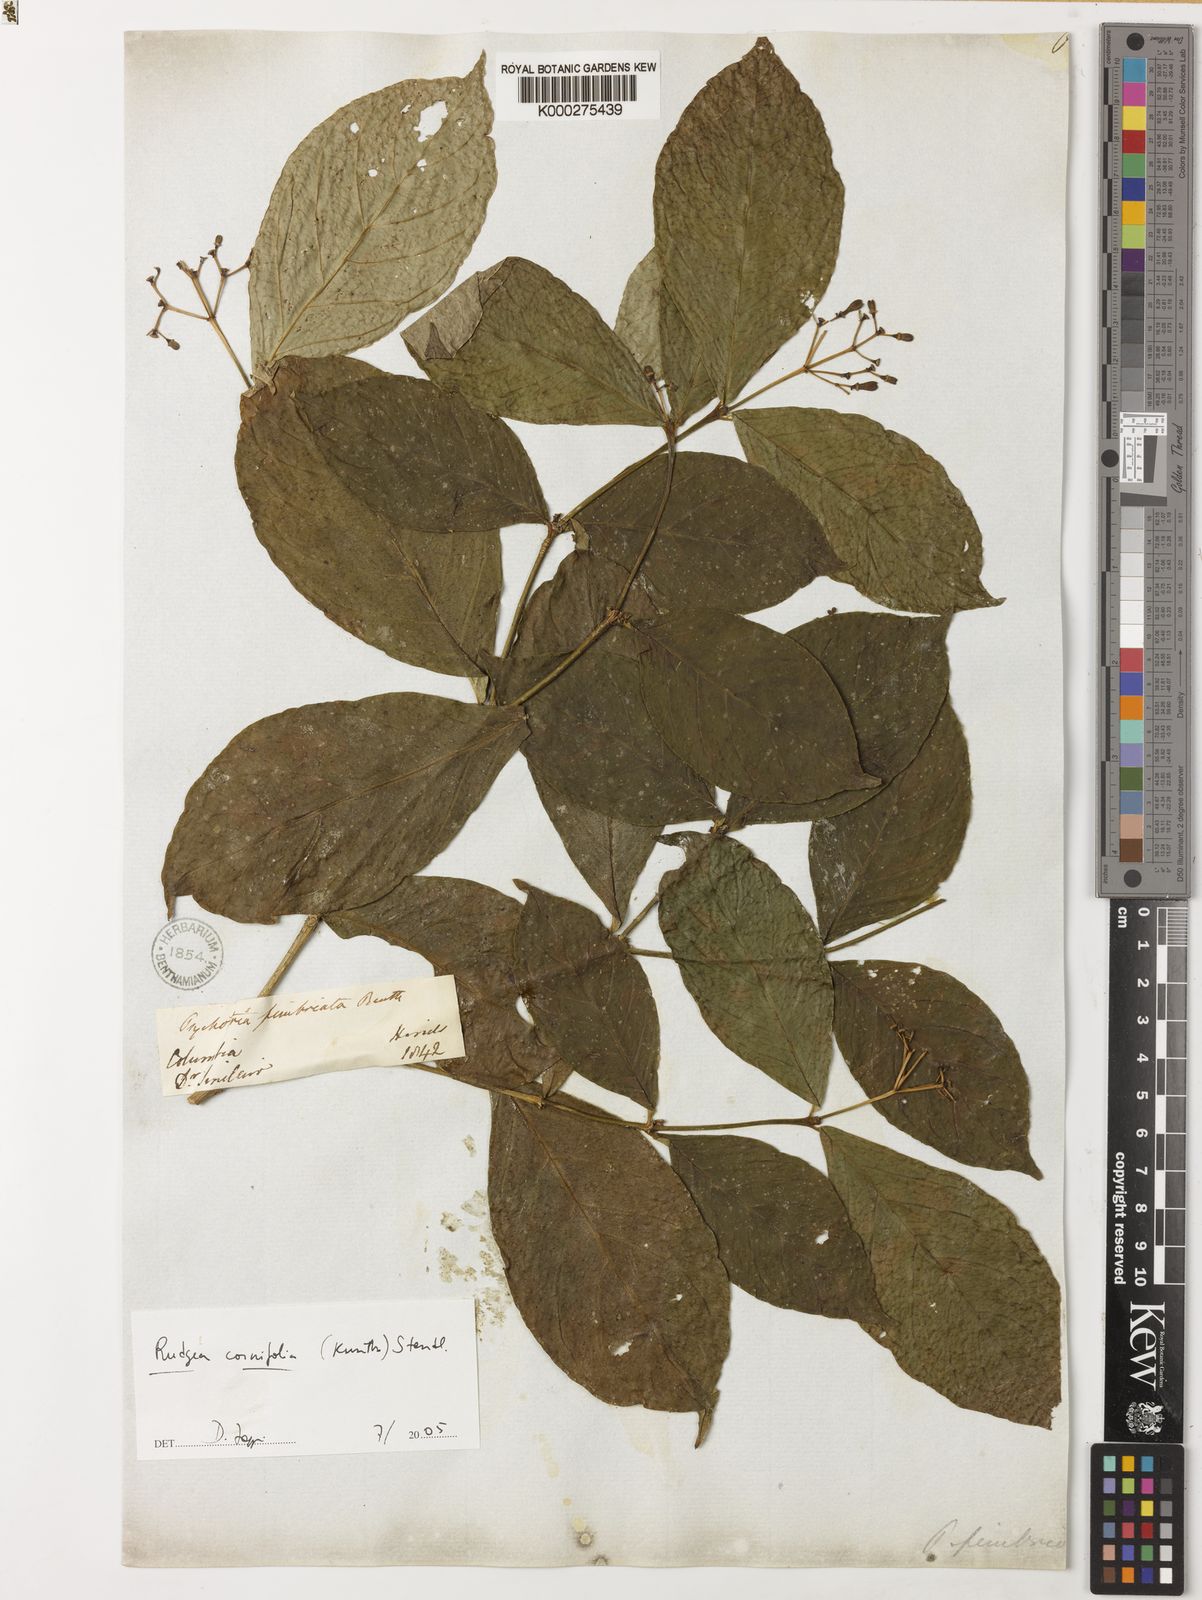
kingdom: Plantae
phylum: Tracheophyta
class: Magnoliopsida
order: Gentianales
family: Rubiaceae
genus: Rudgea
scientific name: Rudgea cornifolia
